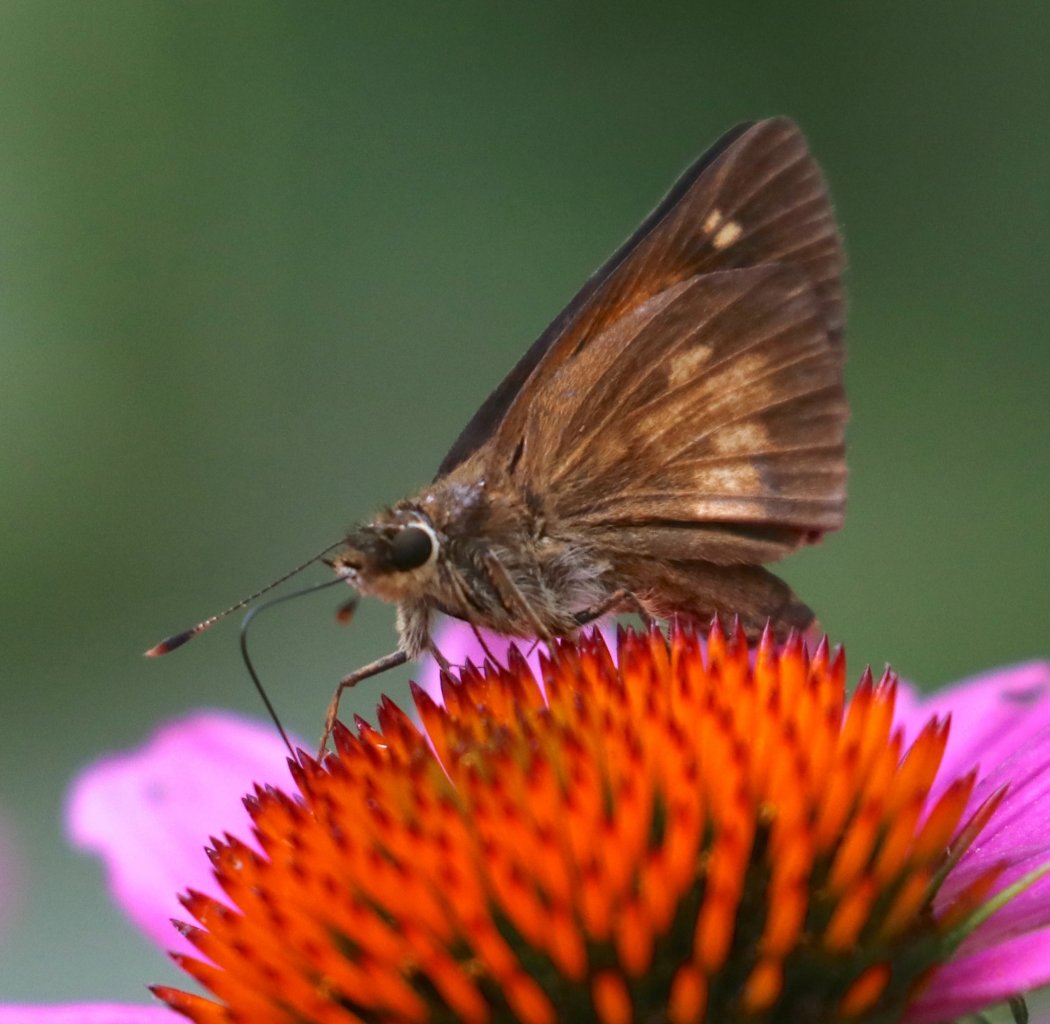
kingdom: Animalia
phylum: Arthropoda
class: Insecta
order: Lepidoptera
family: Hesperiidae
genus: Poanes
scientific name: Poanes viator
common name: Broad-winged Skipper
